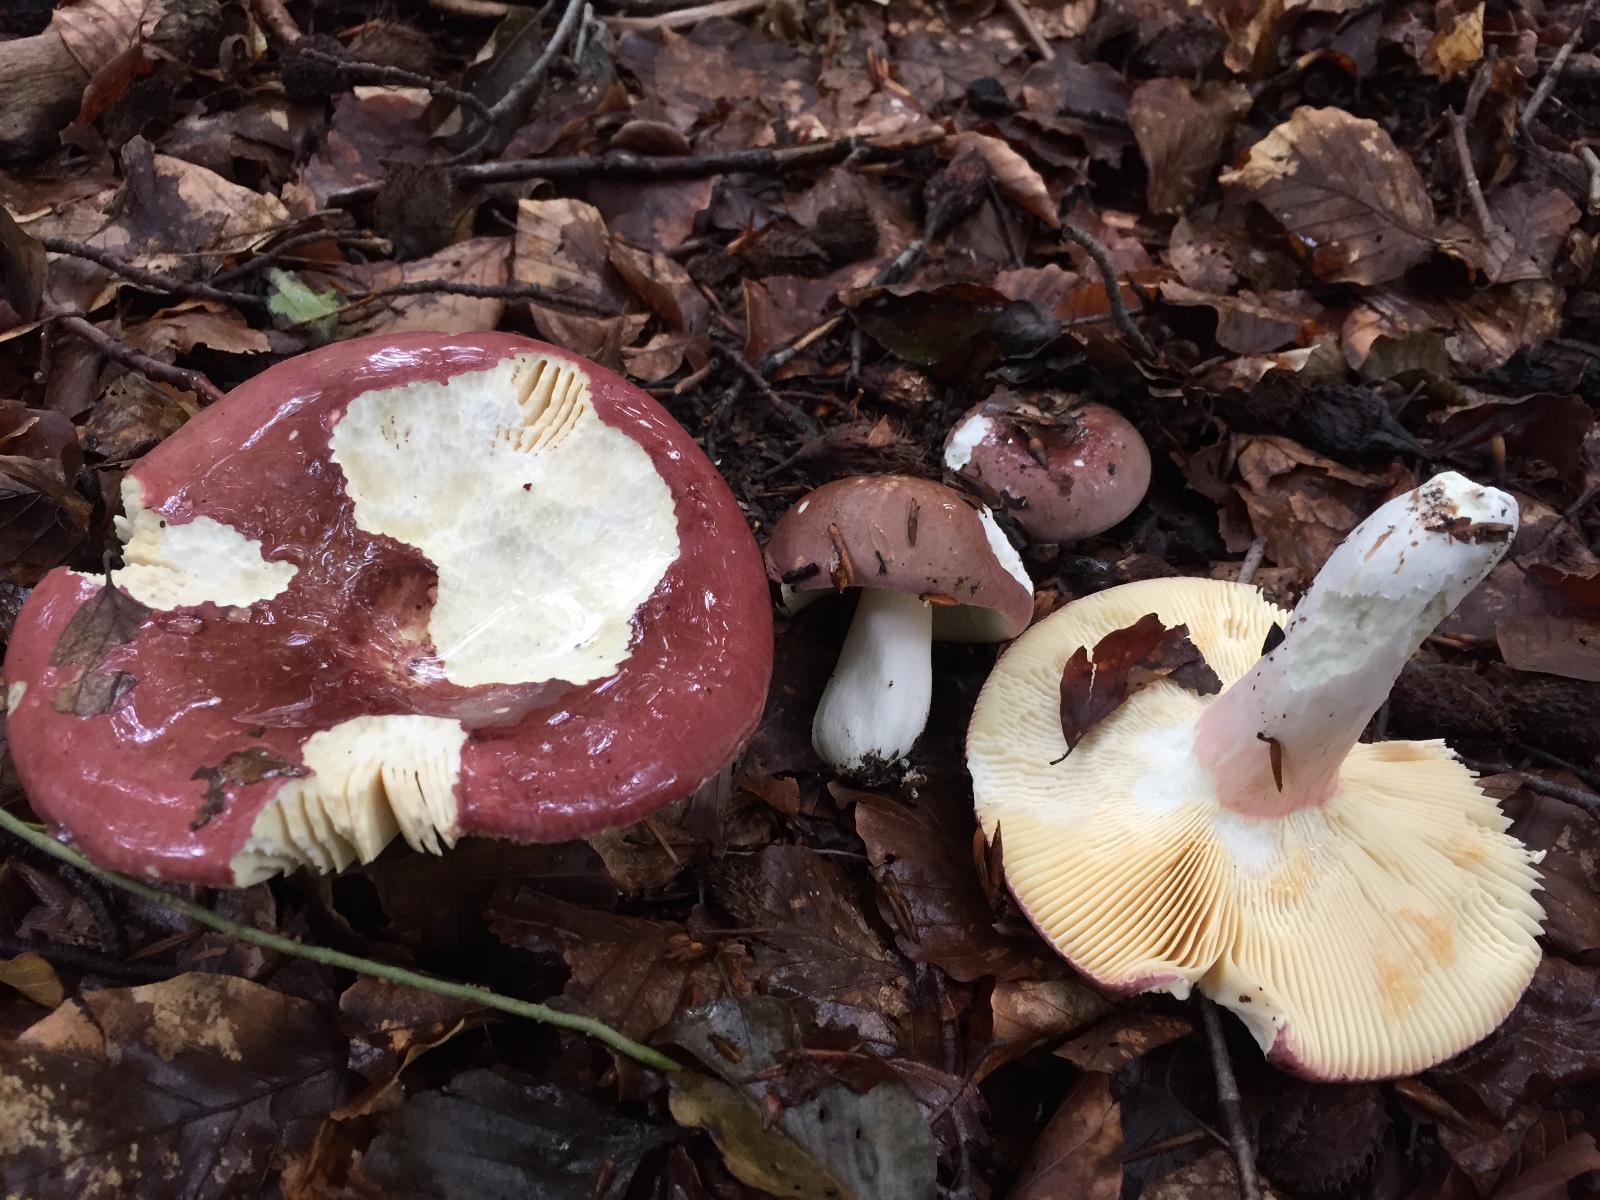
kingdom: Fungi
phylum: Basidiomycota
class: Agaricomycetes
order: Russulales
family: Russulaceae
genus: Russula
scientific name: Russula
